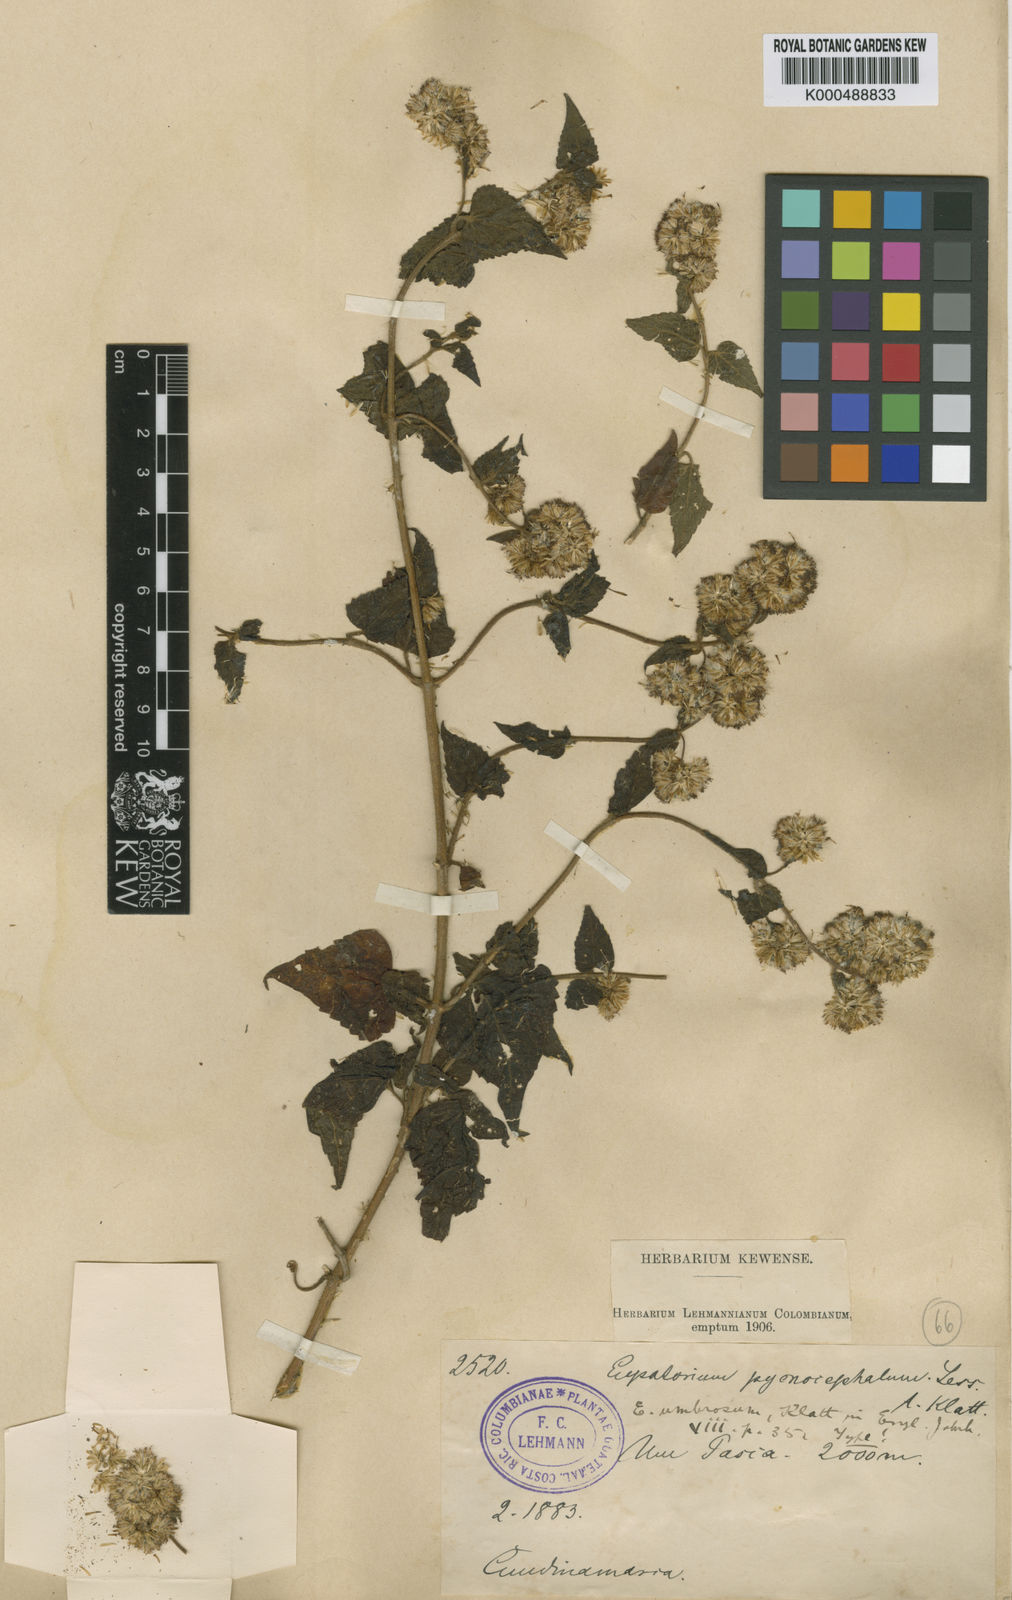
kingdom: Plantae
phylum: Tracheophyta
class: Magnoliopsida
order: Asterales
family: Asteraceae
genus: Fleischmannia
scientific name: Fleischmannia klattiana
